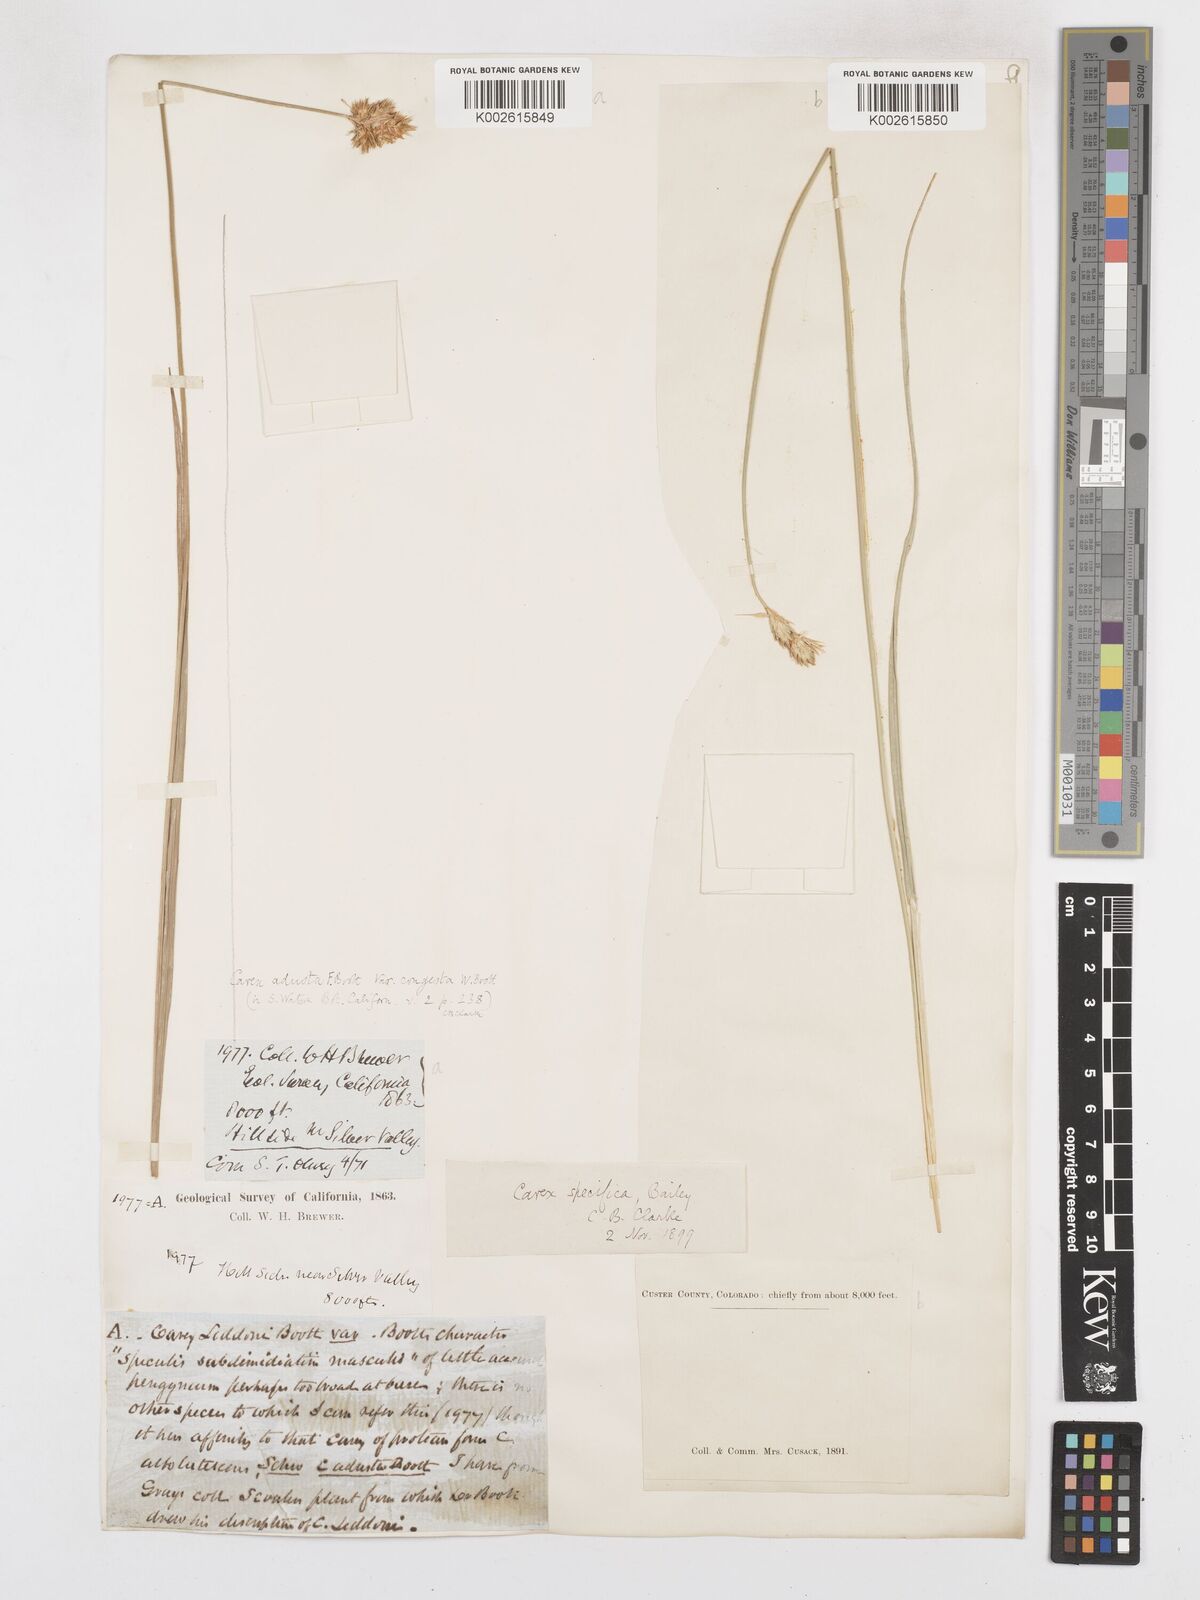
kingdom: Plantae
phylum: Tracheophyta
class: Liliopsida
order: Poales
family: Cyperaceae
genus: Carex
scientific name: Carex specifica
